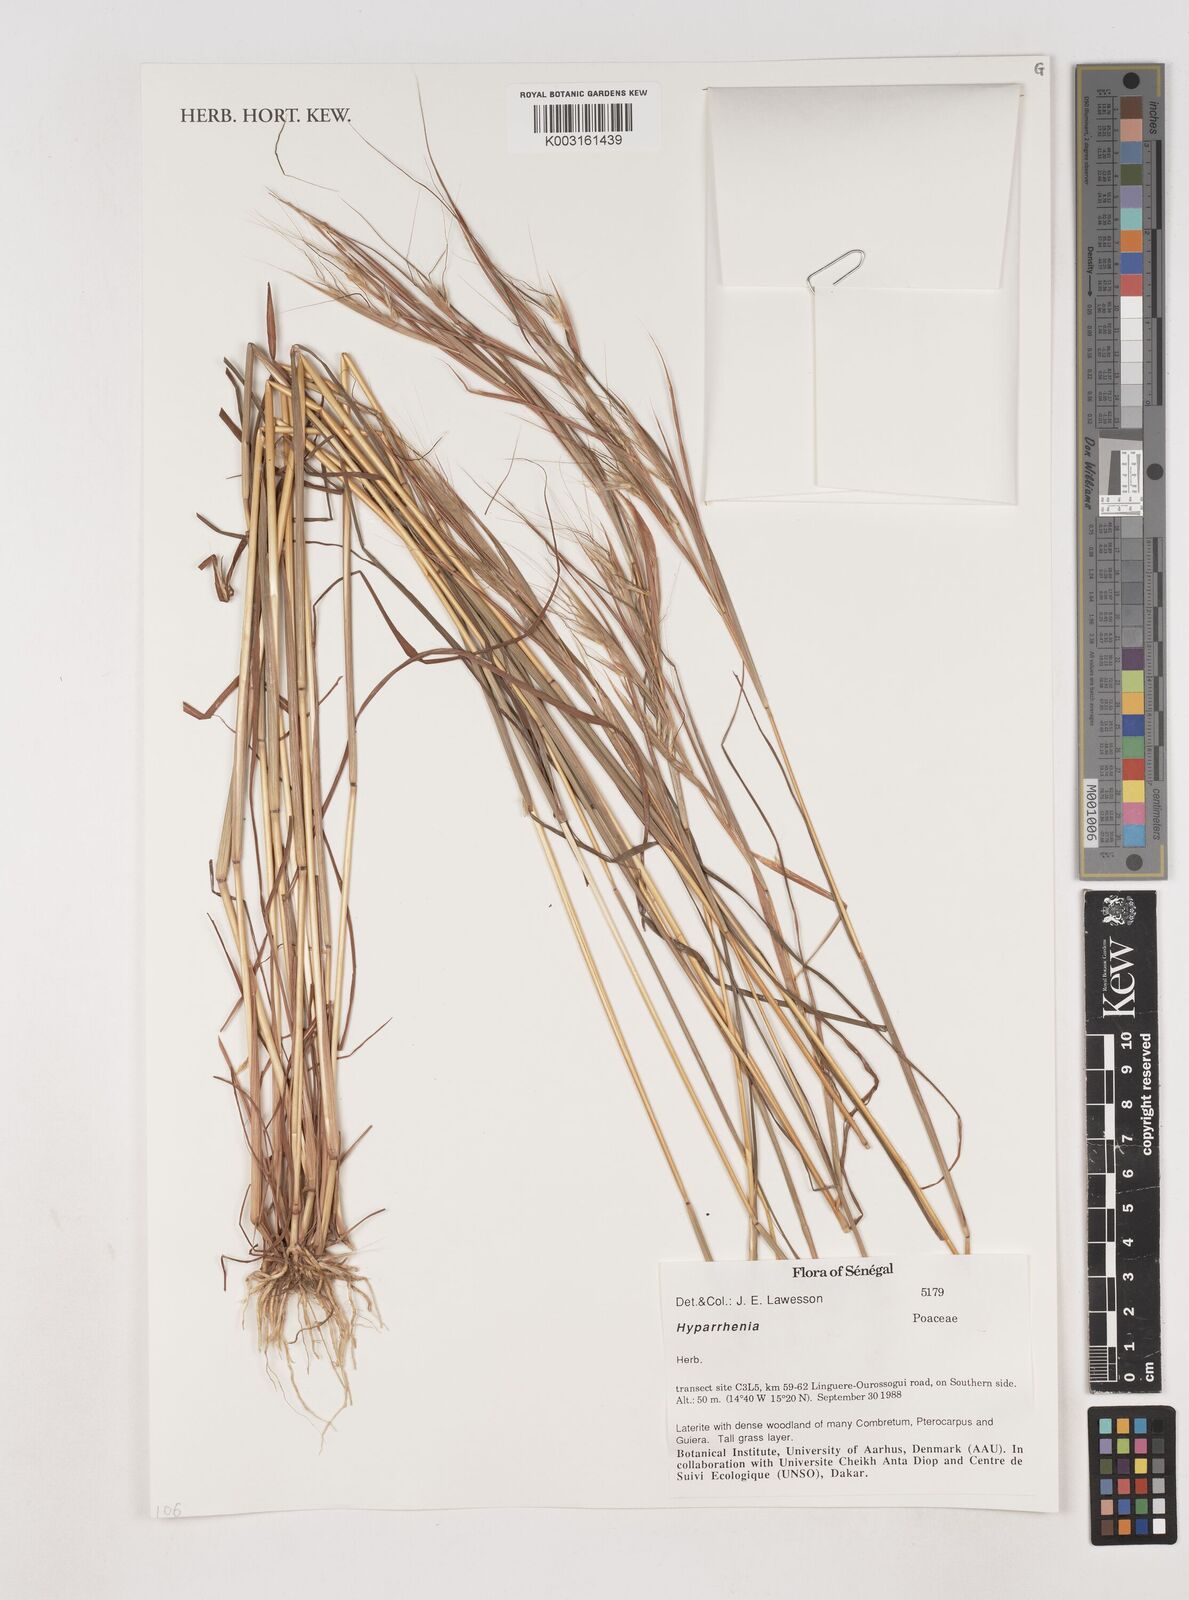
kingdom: Plantae
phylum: Tracheophyta
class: Liliopsida
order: Poales
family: Poaceae
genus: Hyparrhenia
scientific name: Hyparrhenia
